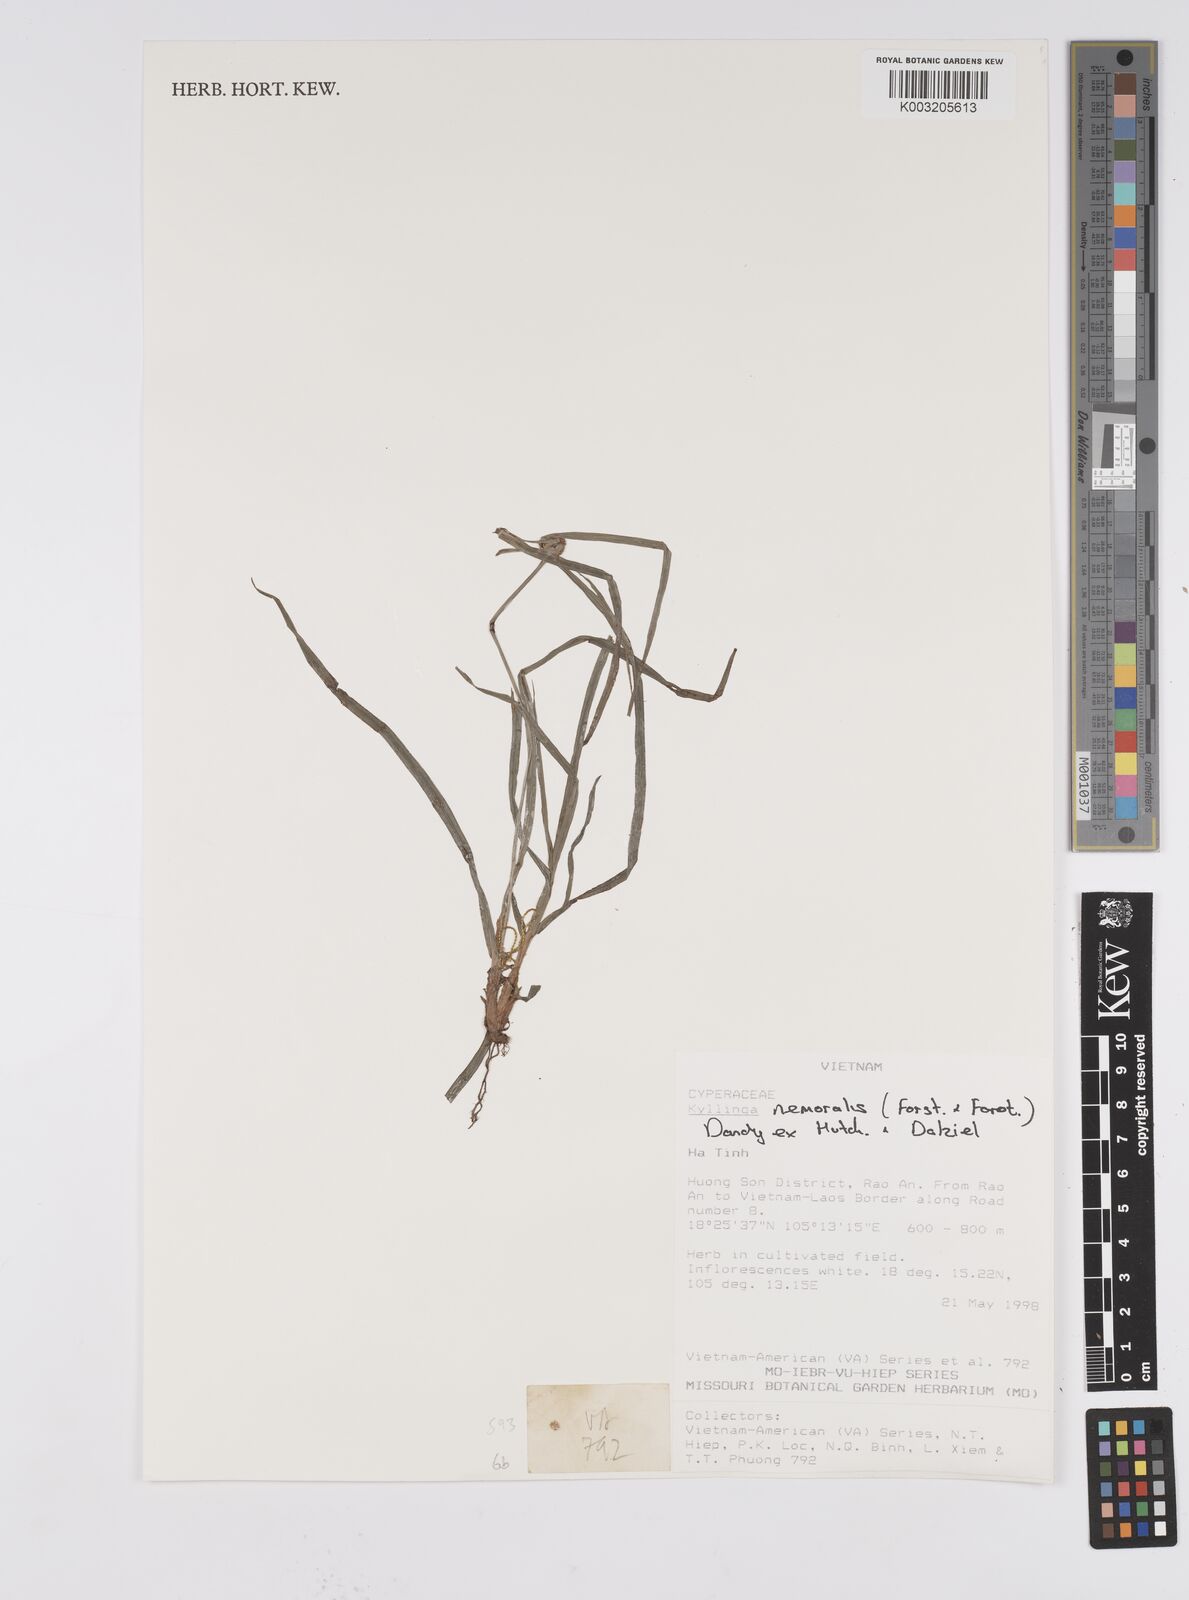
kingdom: Plantae
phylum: Tracheophyta
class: Liliopsida
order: Poales
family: Cyperaceae
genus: Cyperus
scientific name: Cyperus
